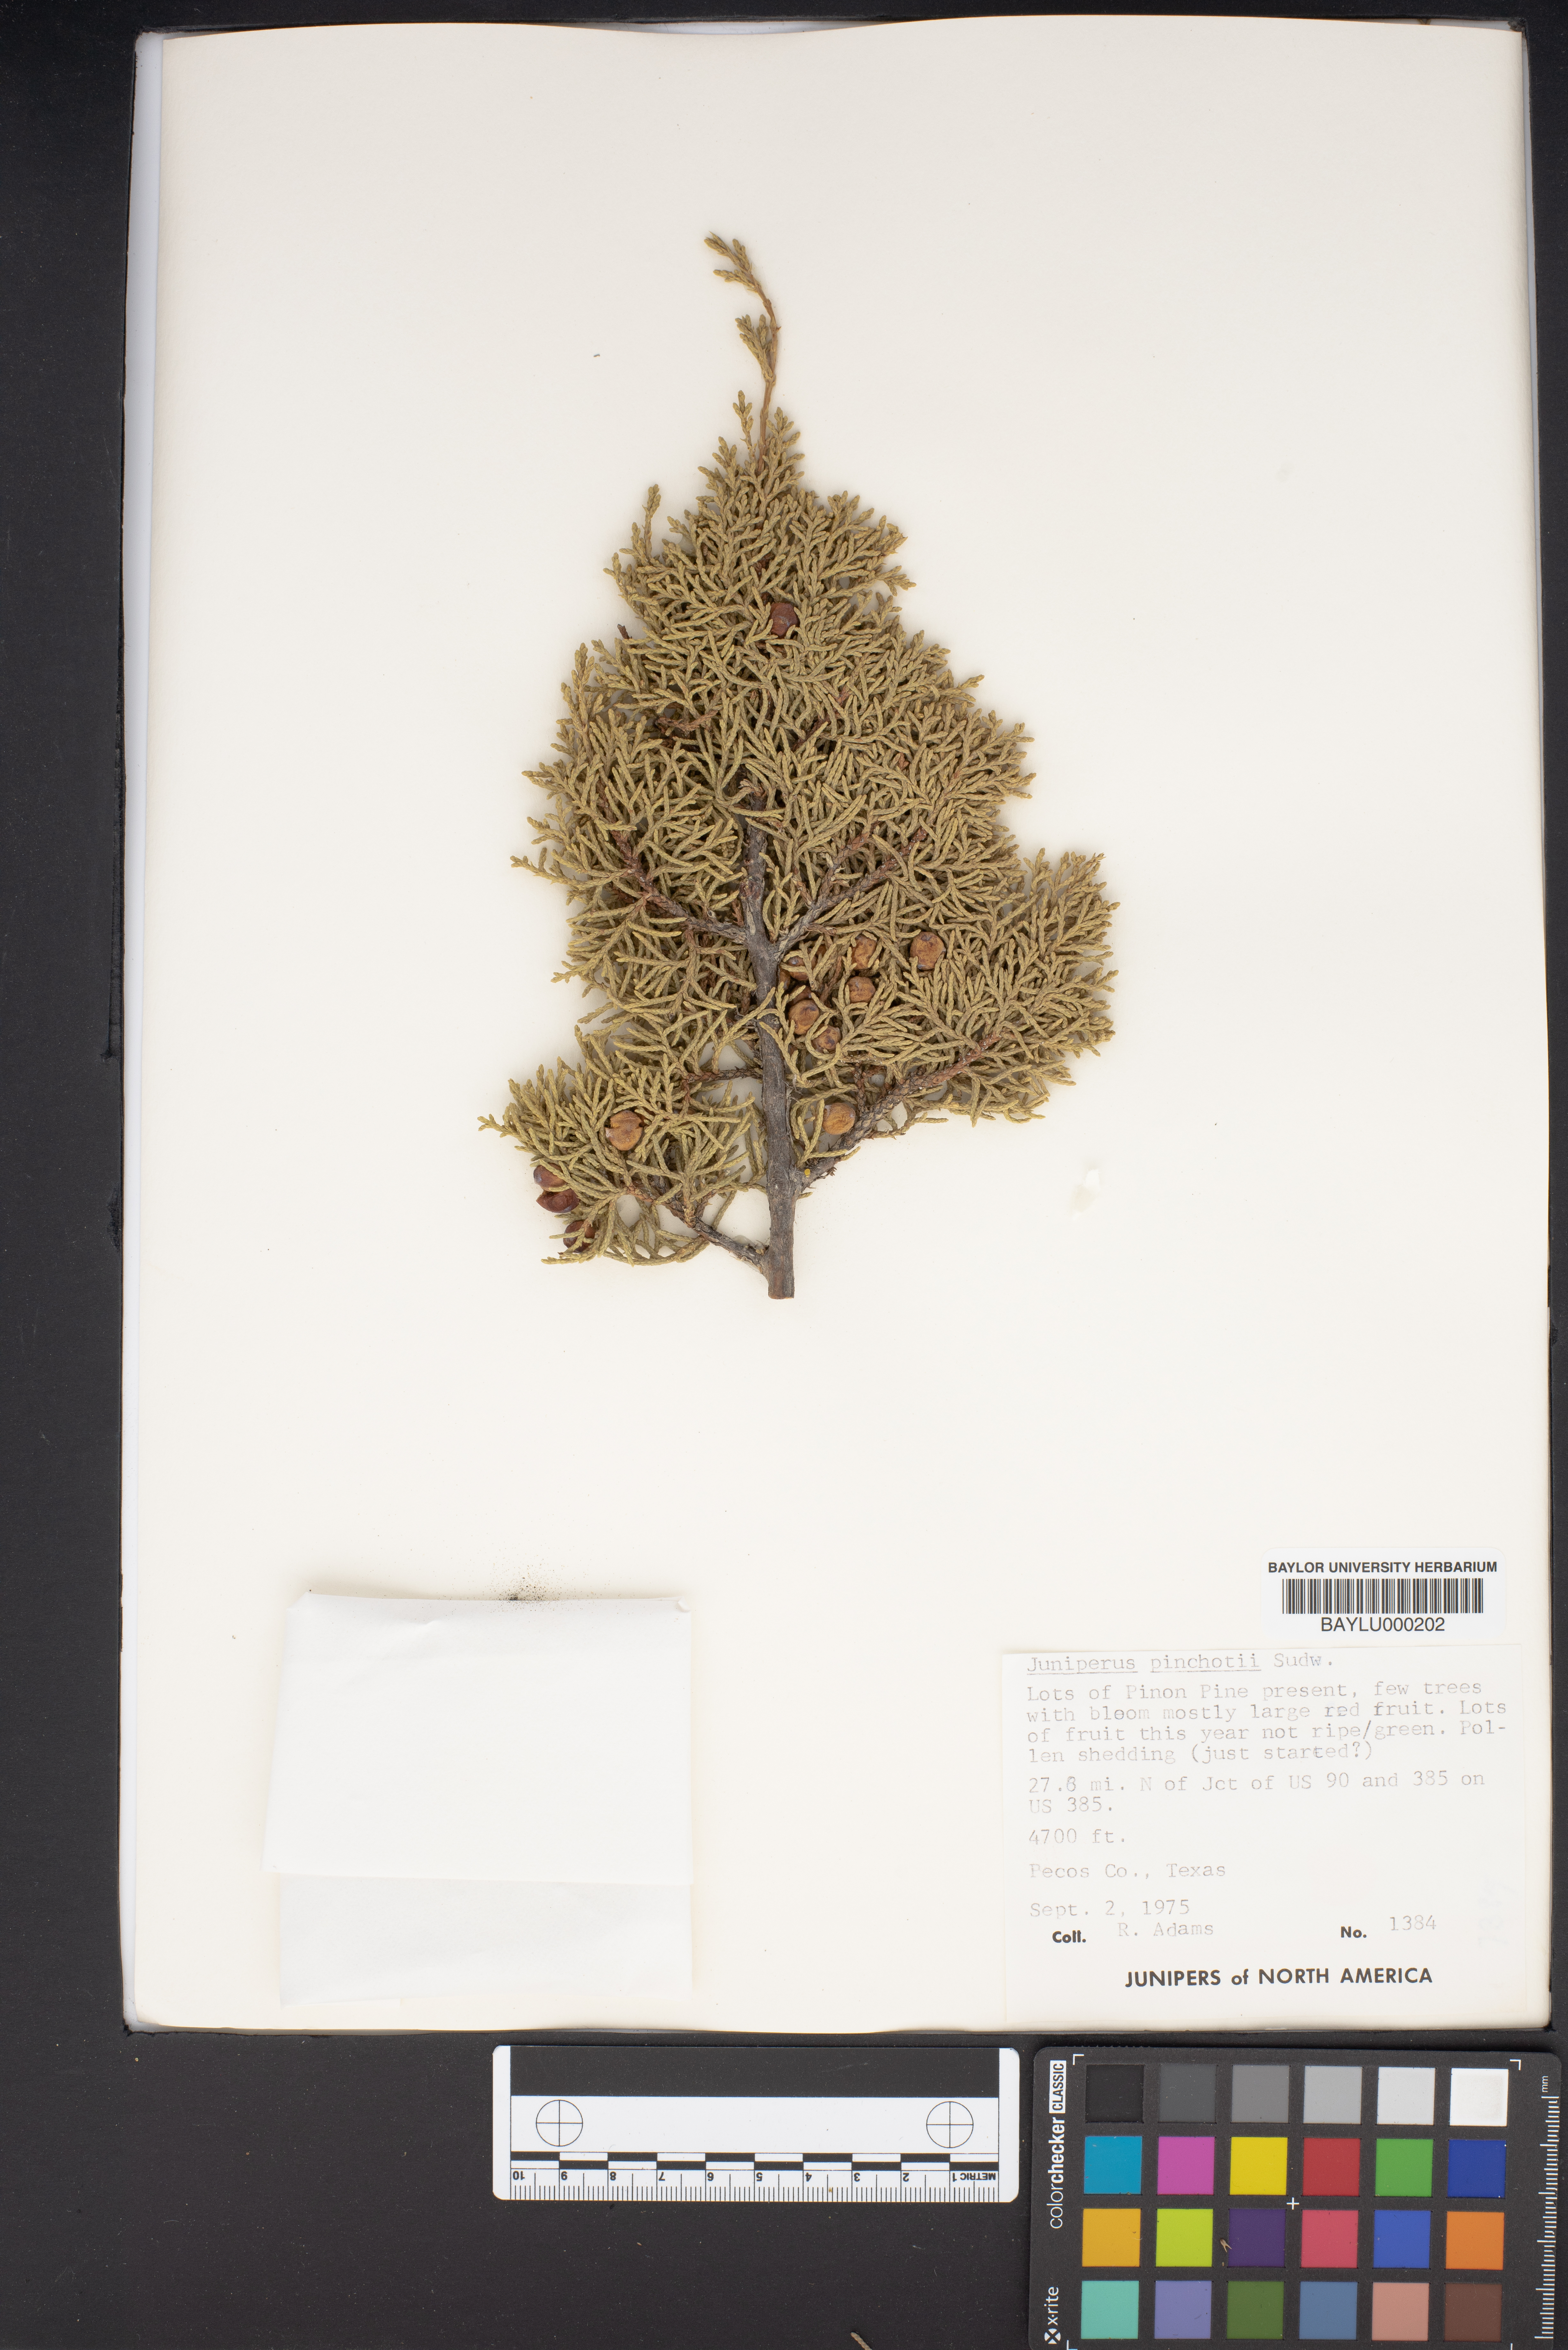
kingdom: Plantae
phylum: Tracheophyta
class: Pinopsida
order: Pinales
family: Cupressaceae
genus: Juniperus
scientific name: Juniperus pinchotii
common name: Pinchot juniper
